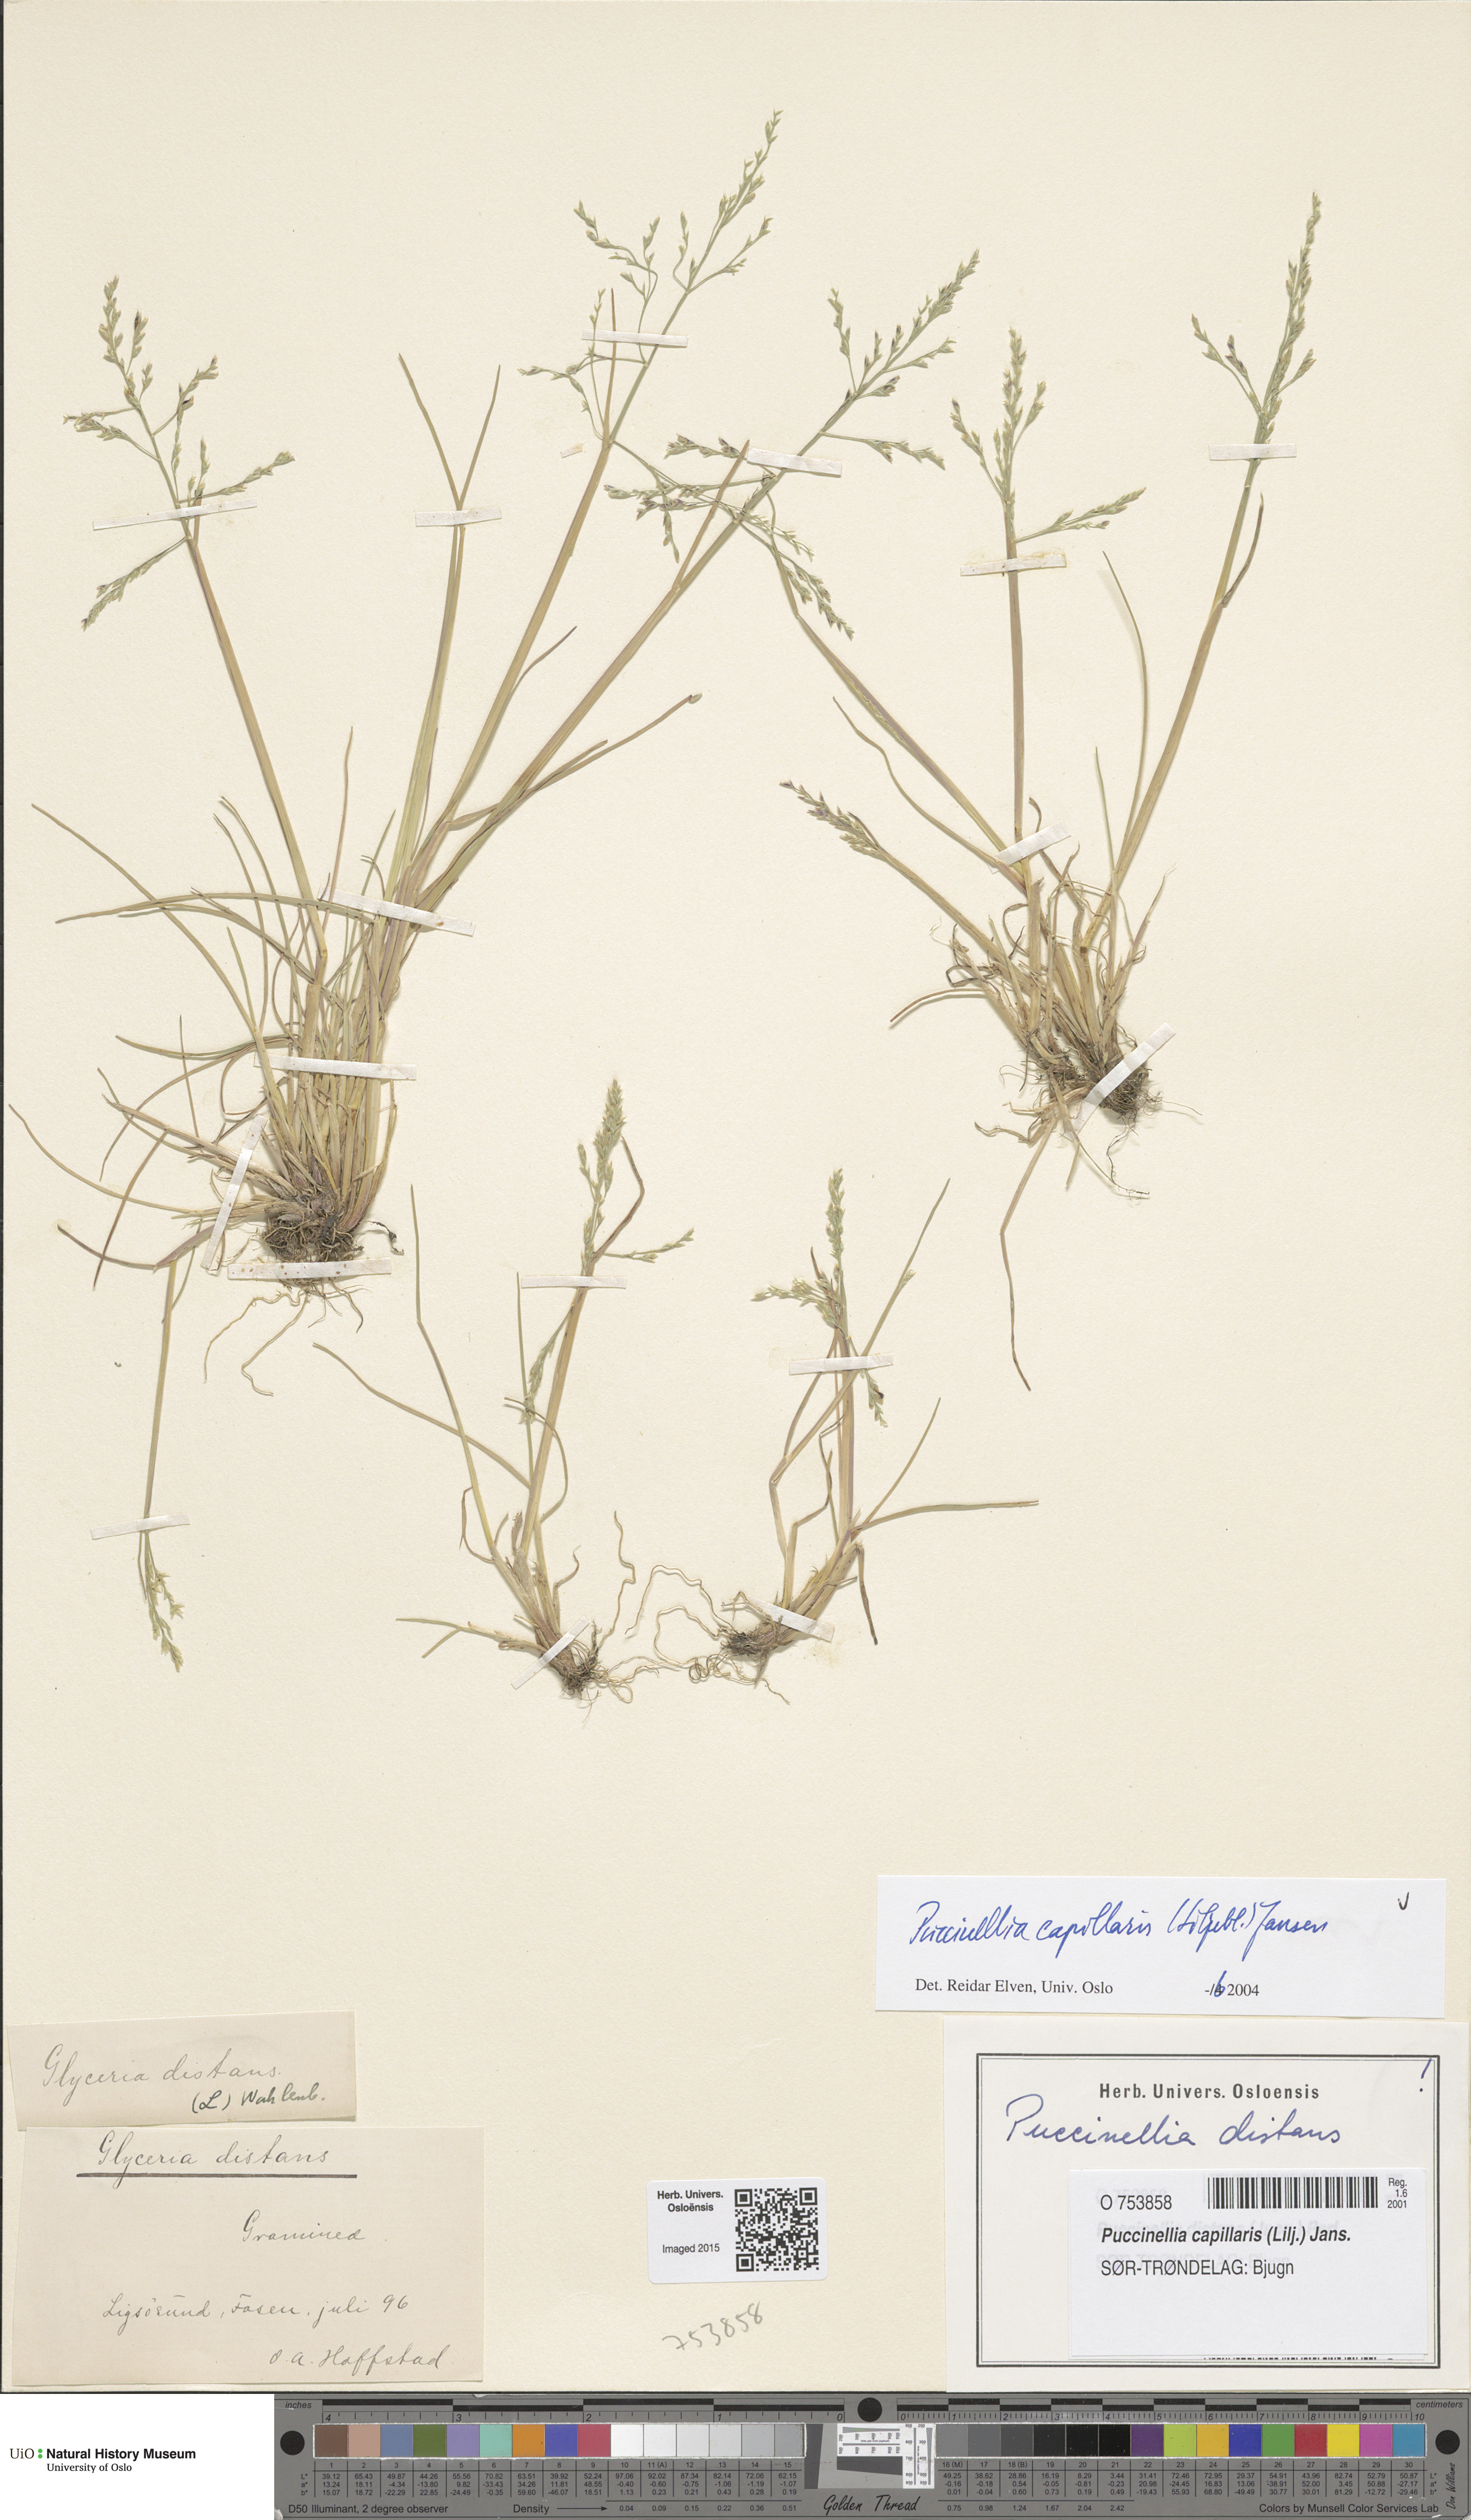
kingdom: Plantae
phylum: Tracheophyta
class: Liliopsida
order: Poales
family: Poaceae
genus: Puccinellia
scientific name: Puccinellia distans
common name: Weeping alkaligrass
